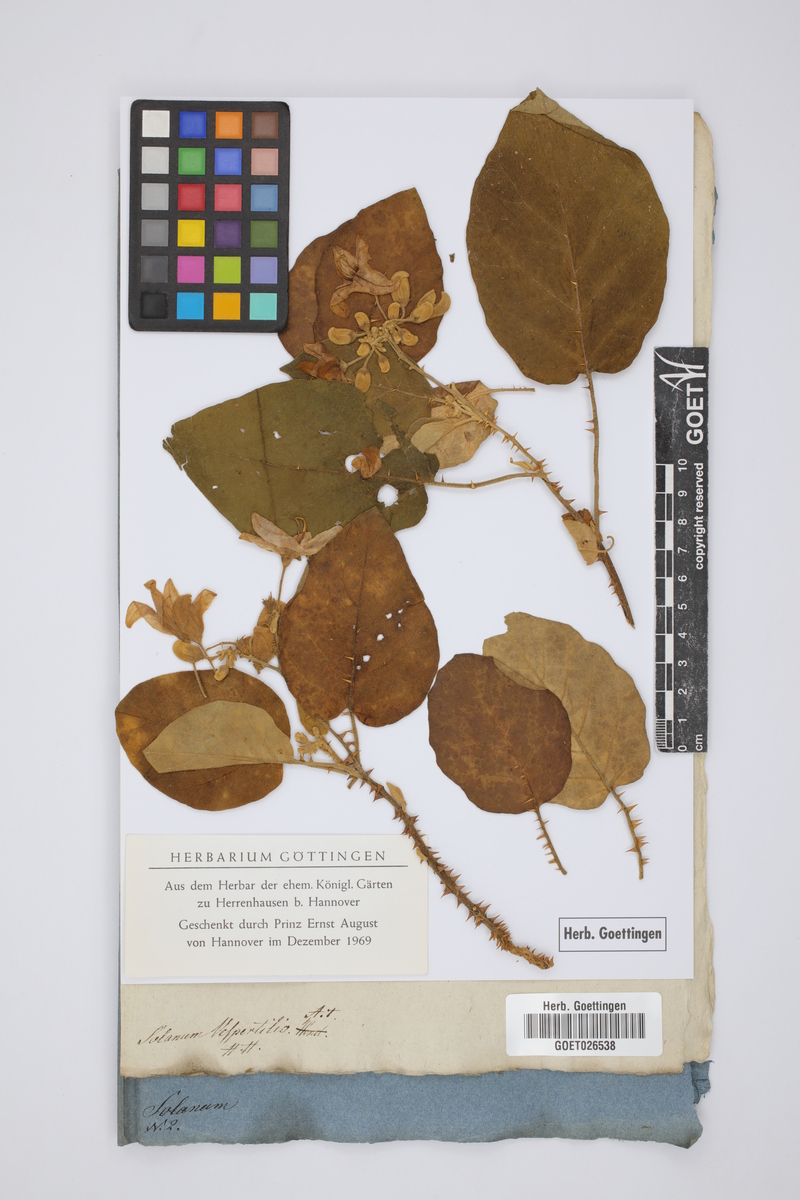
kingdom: Plantae
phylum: Tracheophyta
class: Magnoliopsida
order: Solanales
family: Solanaceae
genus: Solanum
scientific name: Solanum vespertilio
